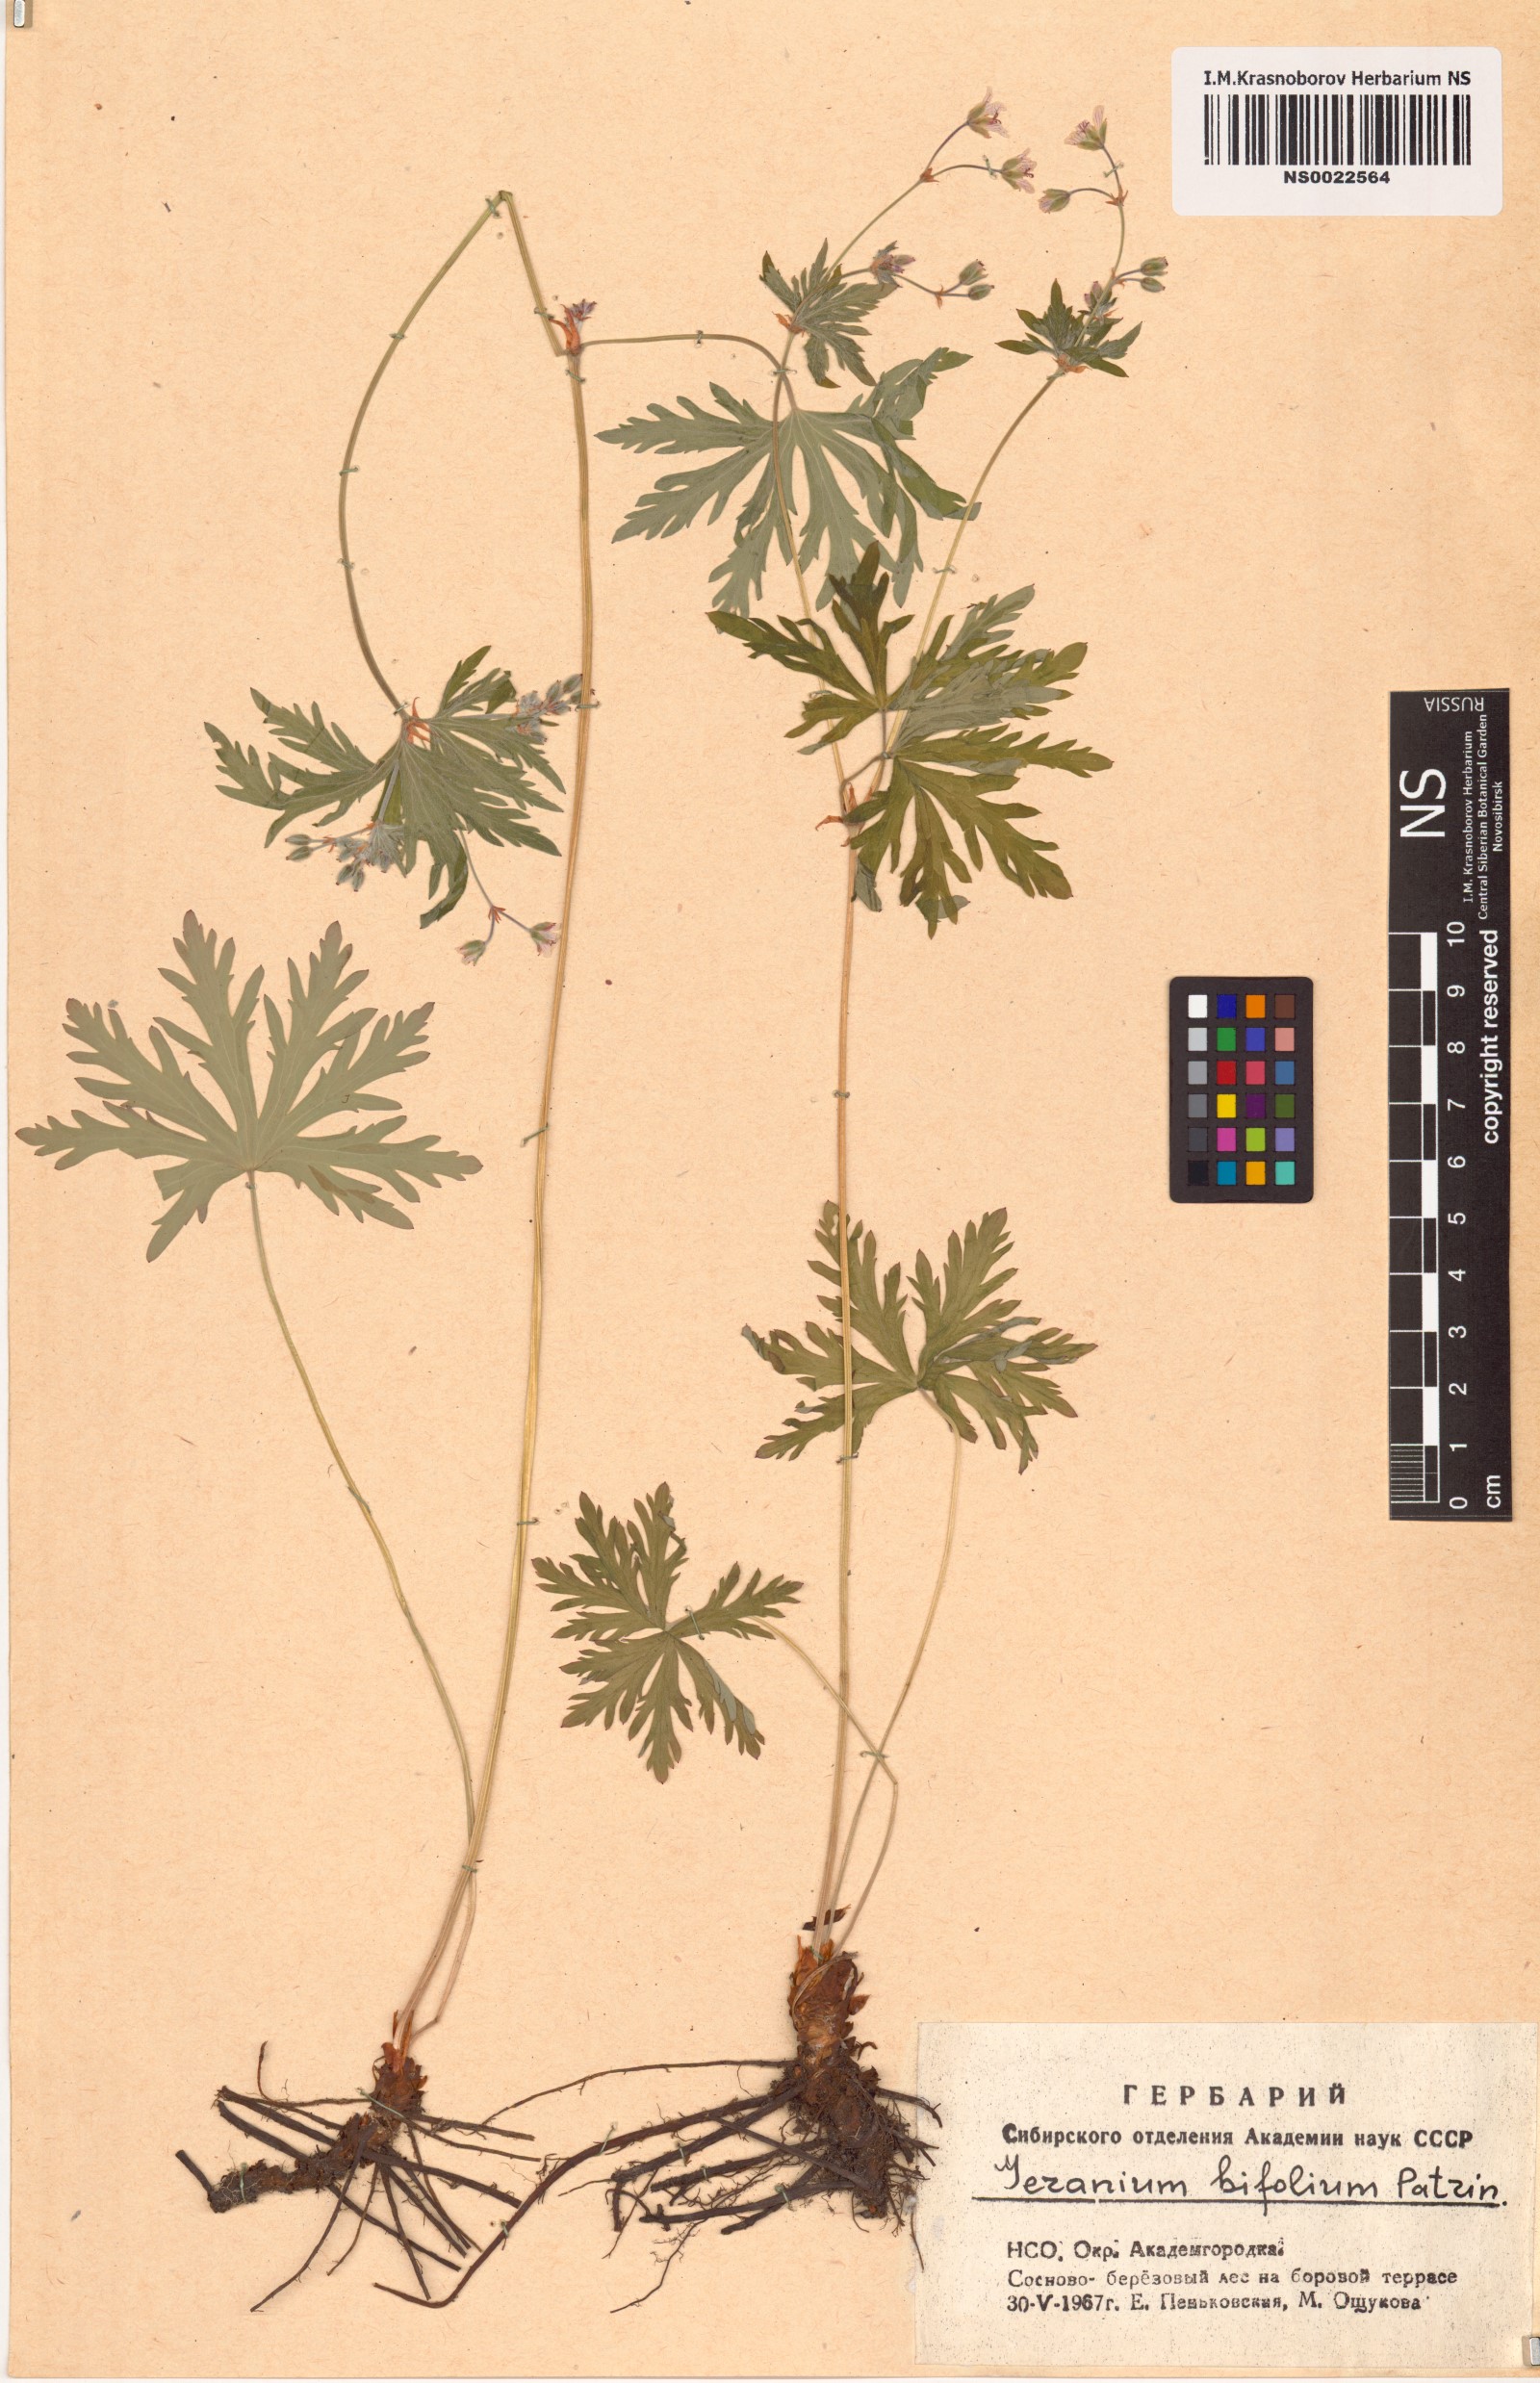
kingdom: Plantae
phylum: Tracheophyta
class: Magnoliopsida
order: Geraniales
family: Geraniaceae
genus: Geranium
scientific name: Geranium pseudosibiricum
